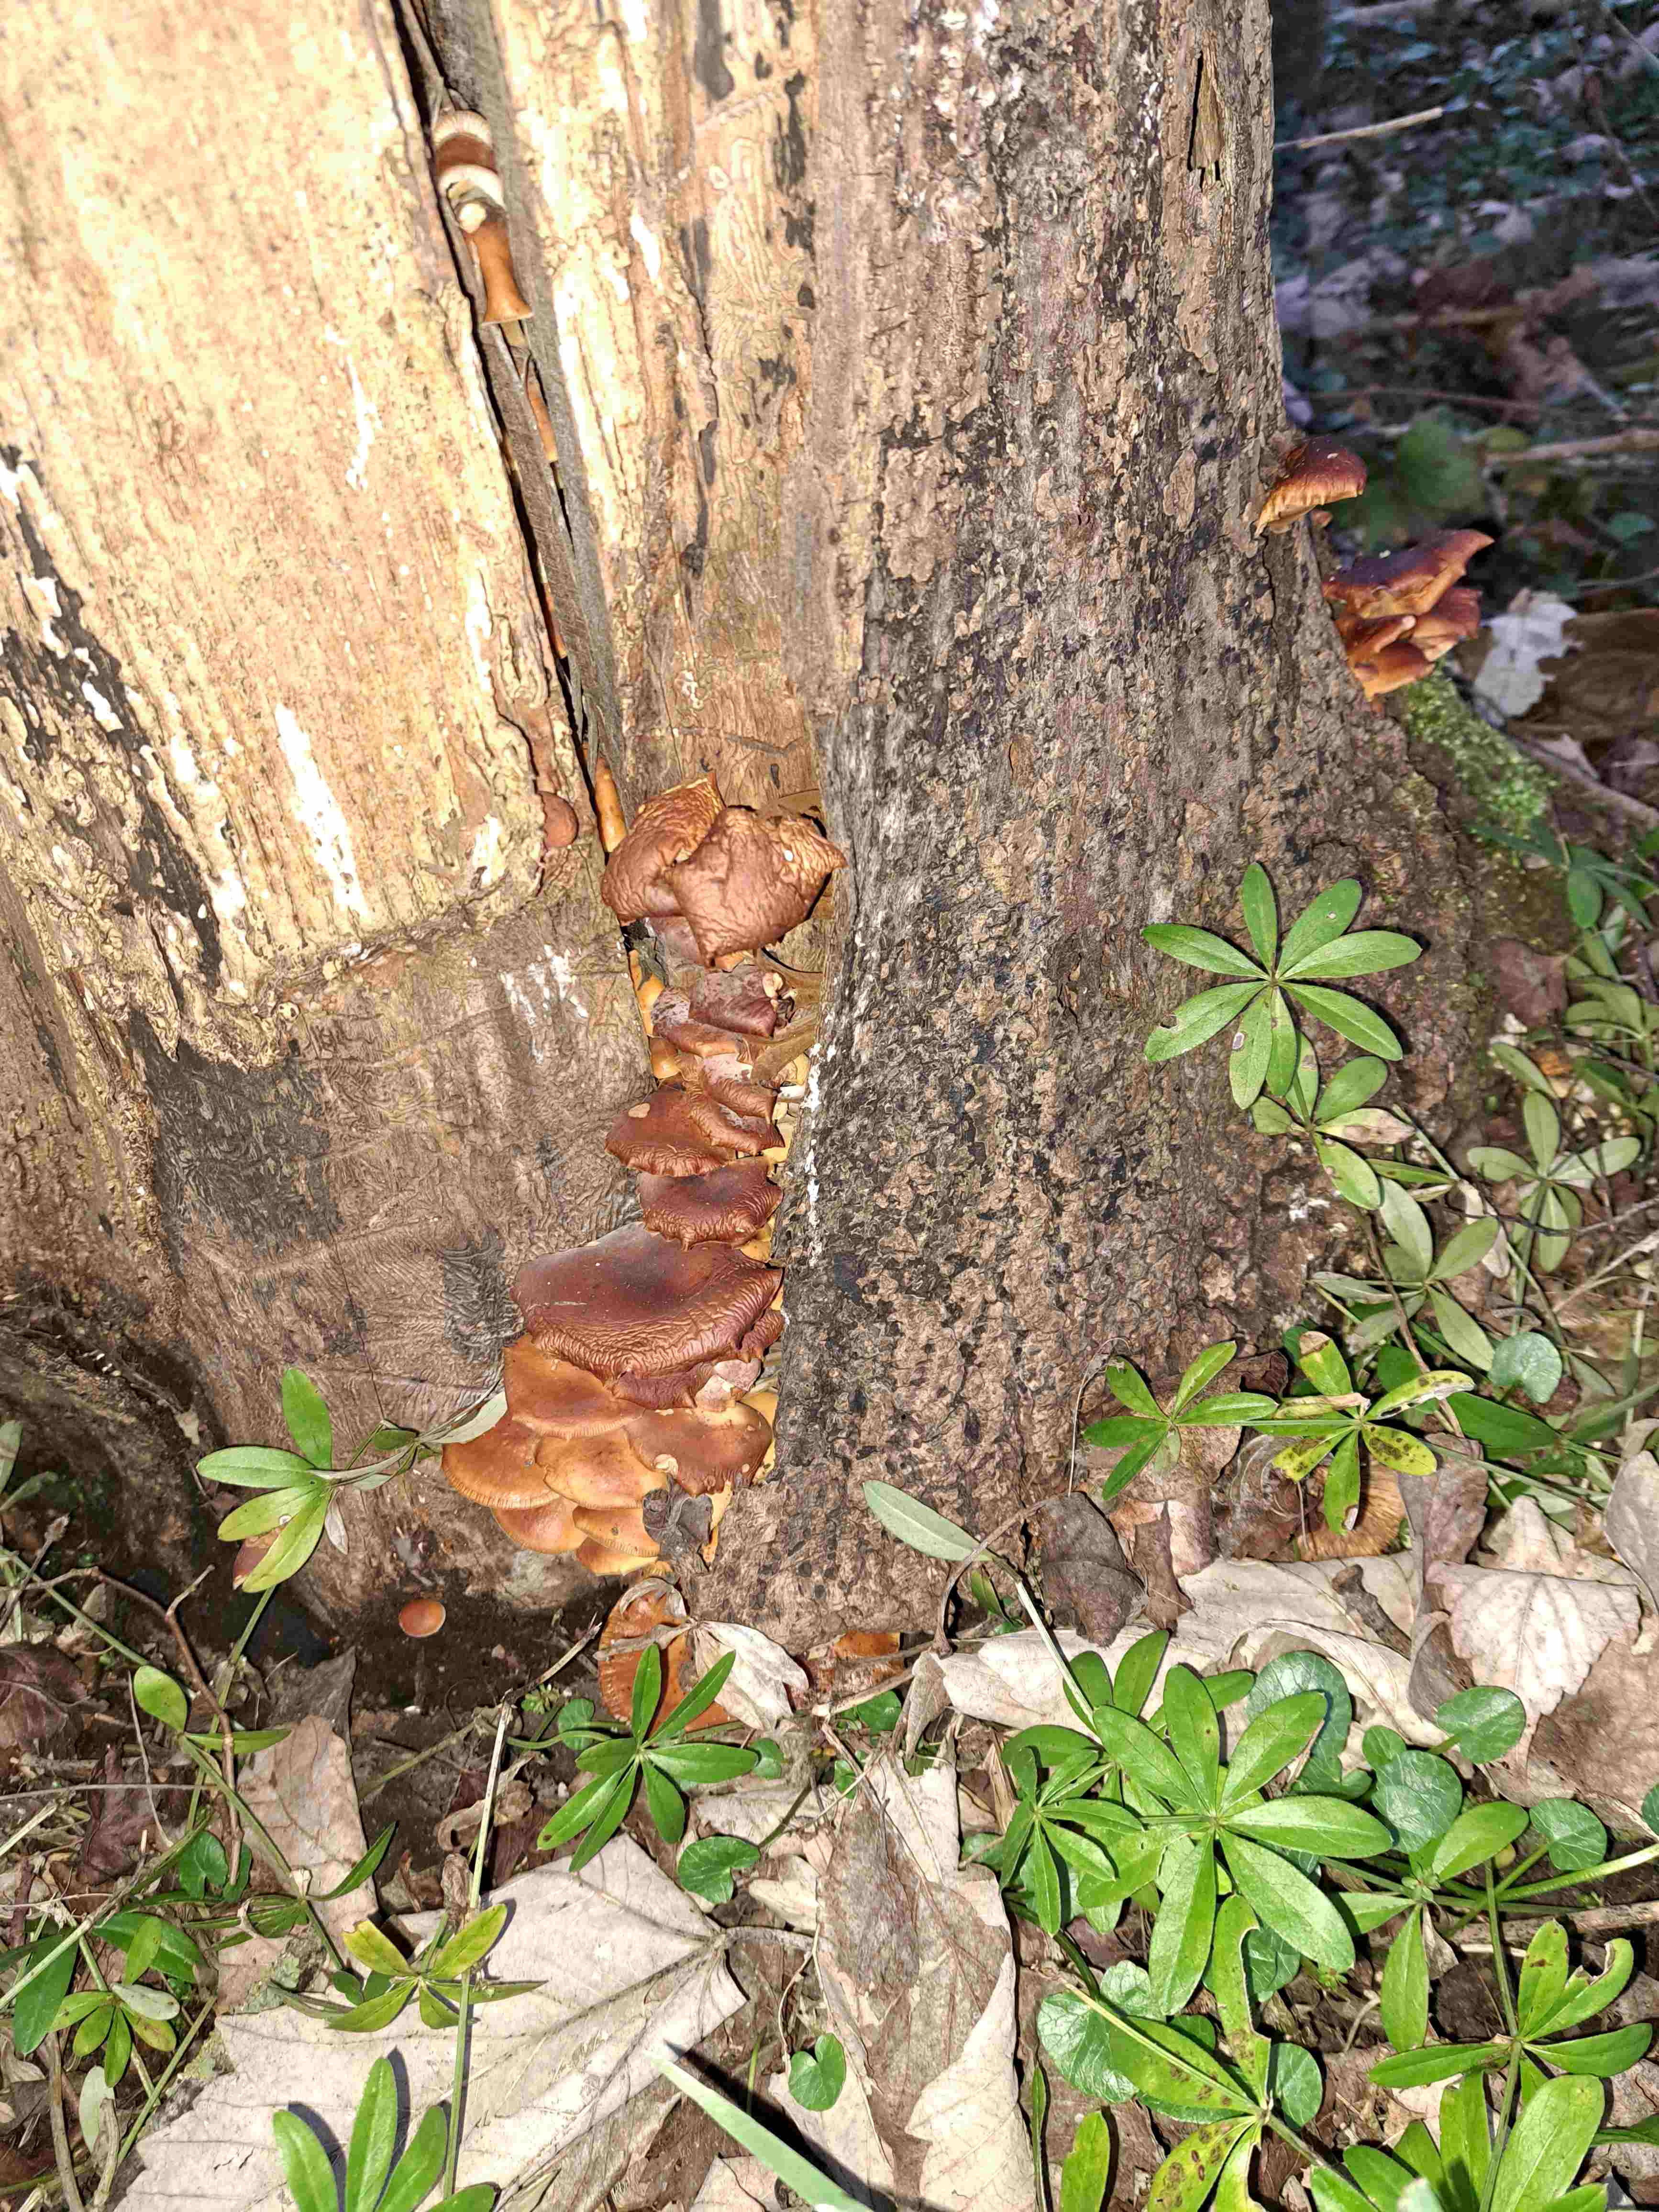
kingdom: Fungi
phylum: Basidiomycota
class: Agaricomycetes
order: Agaricales
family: Physalacriaceae
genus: Flammulina
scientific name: Flammulina velutipes
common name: gul fløjlsfod
